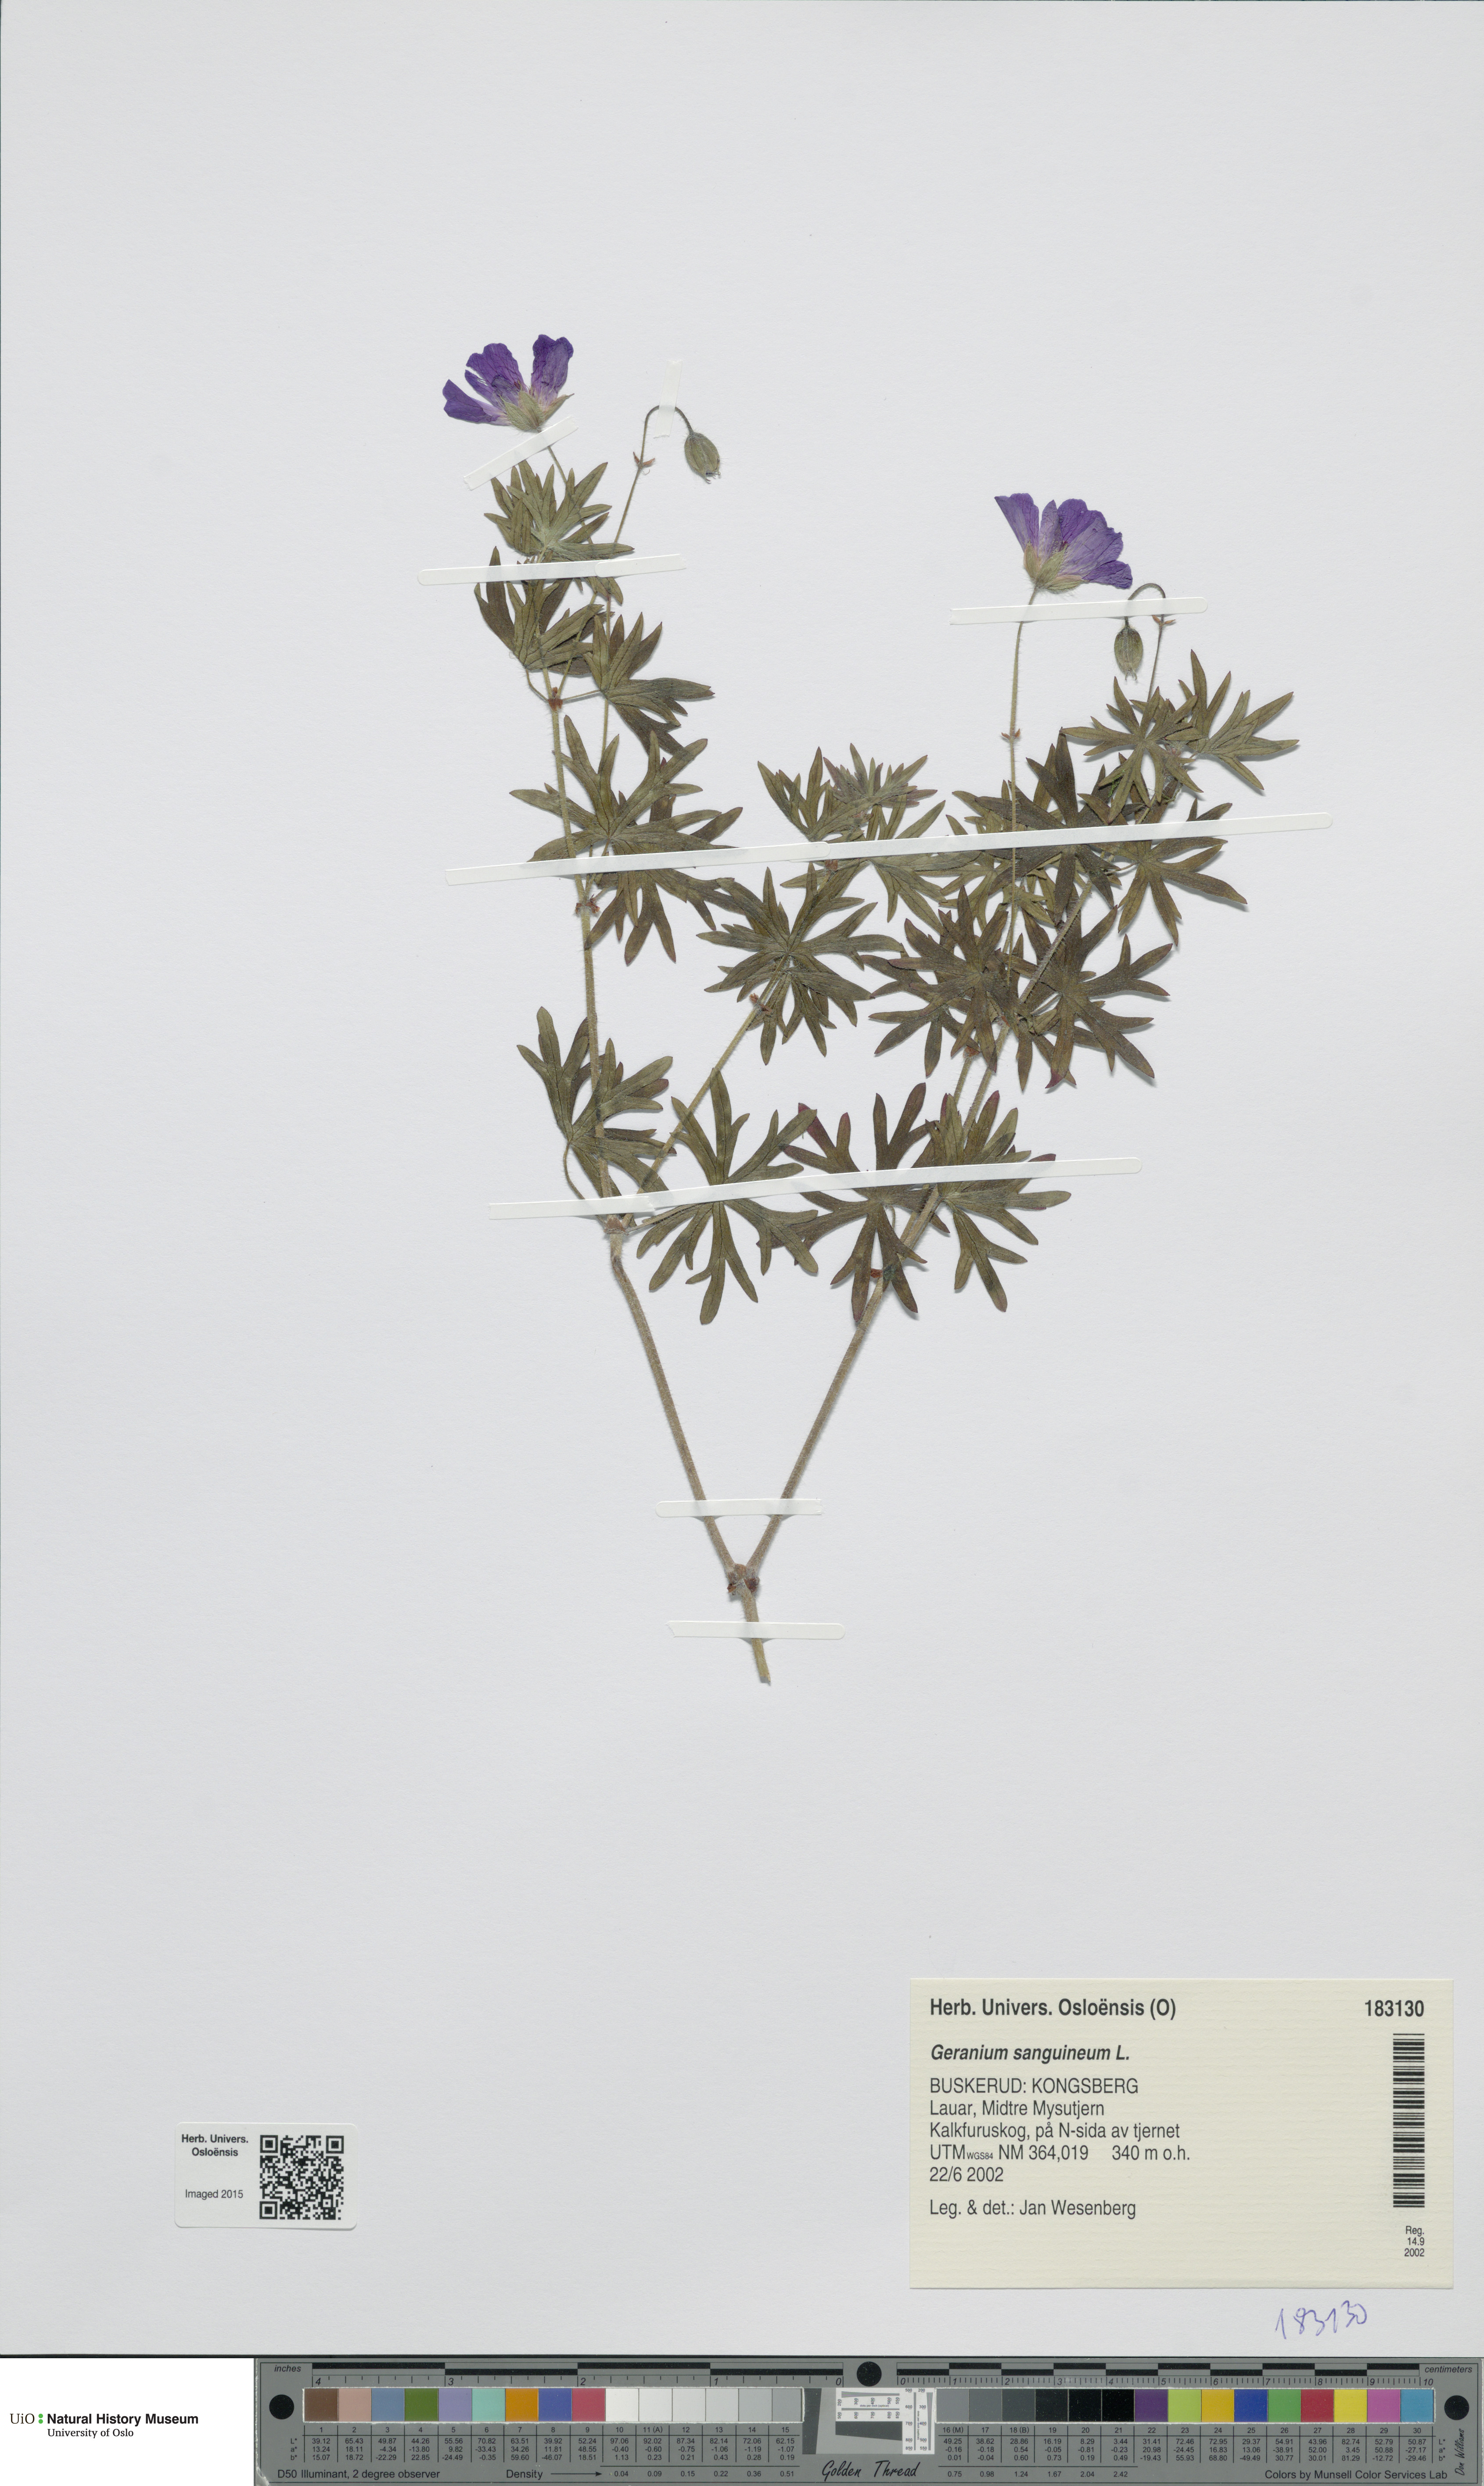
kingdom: Plantae
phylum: Tracheophyta
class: Magnoliopsida
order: Geraniales
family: Geraniaceae
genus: Geranium
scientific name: Geranium sanguineum
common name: Bloody crane's-bill
